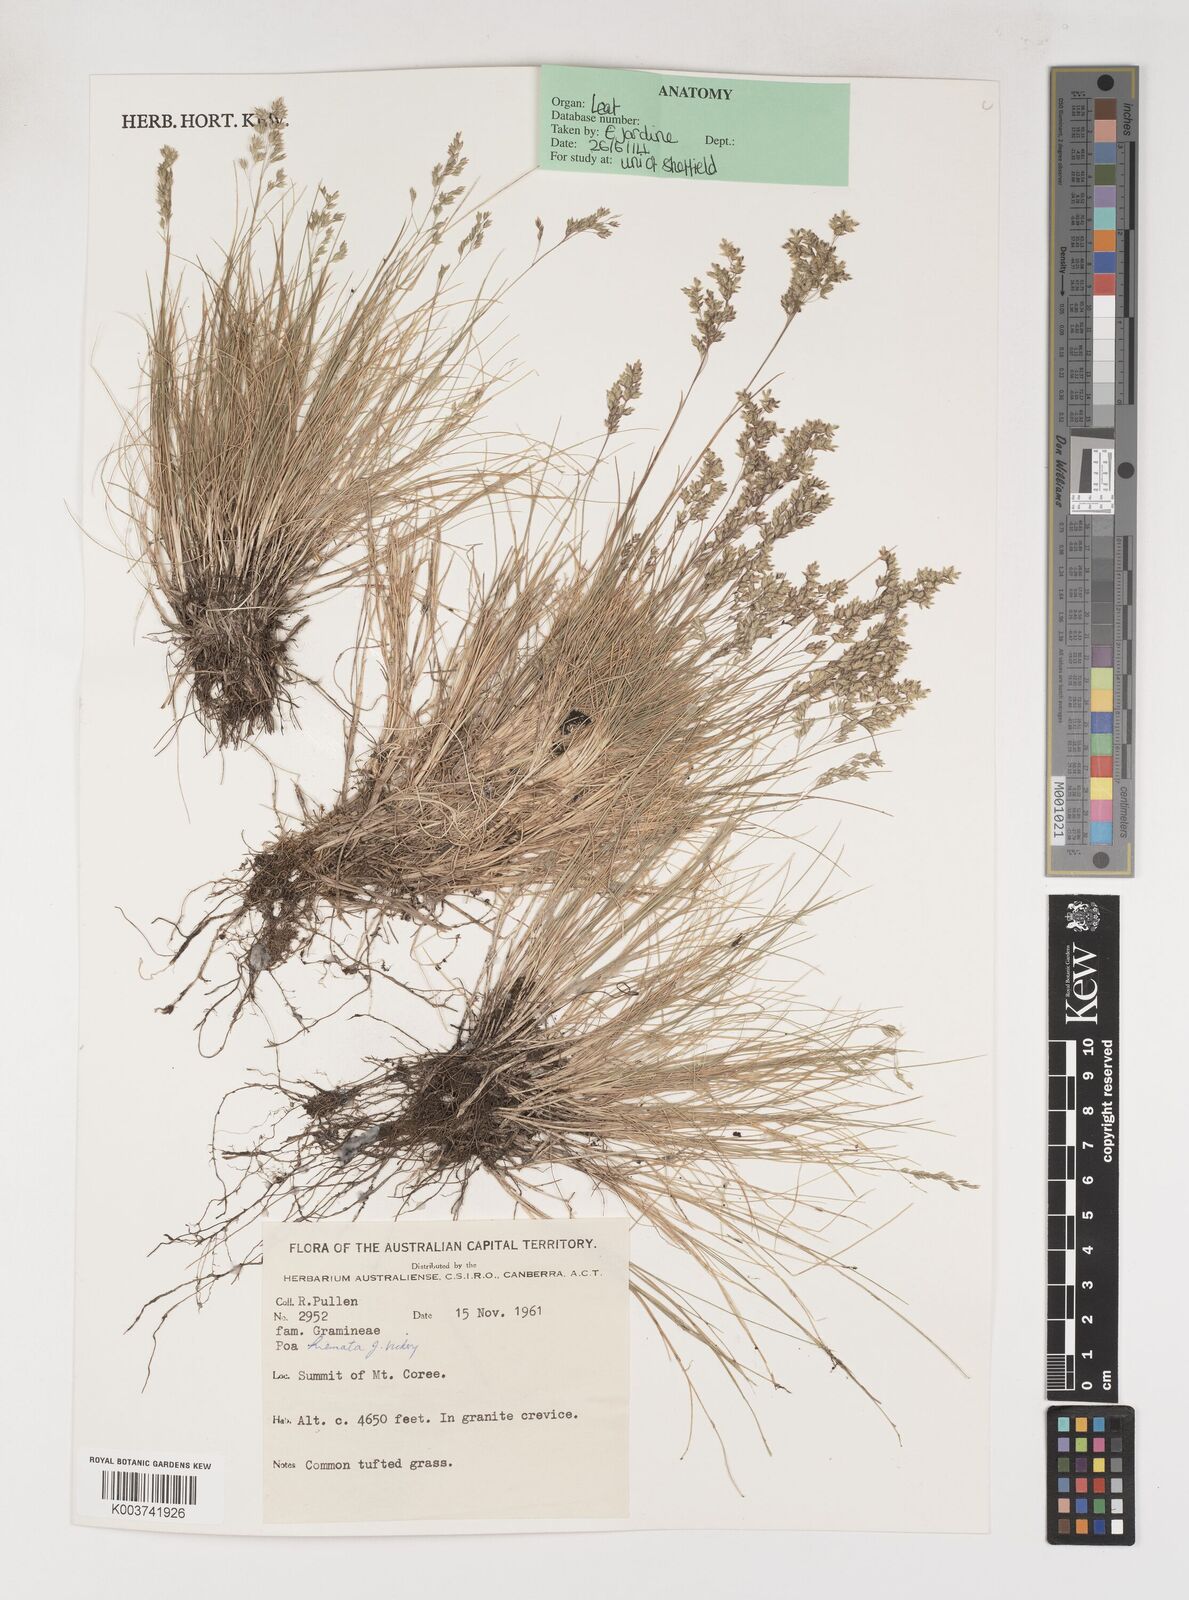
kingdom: Plantae
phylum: Tracheophyta
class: Liliopsida
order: Poales
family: Poaceae
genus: Poa
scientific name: Poa hiemata
